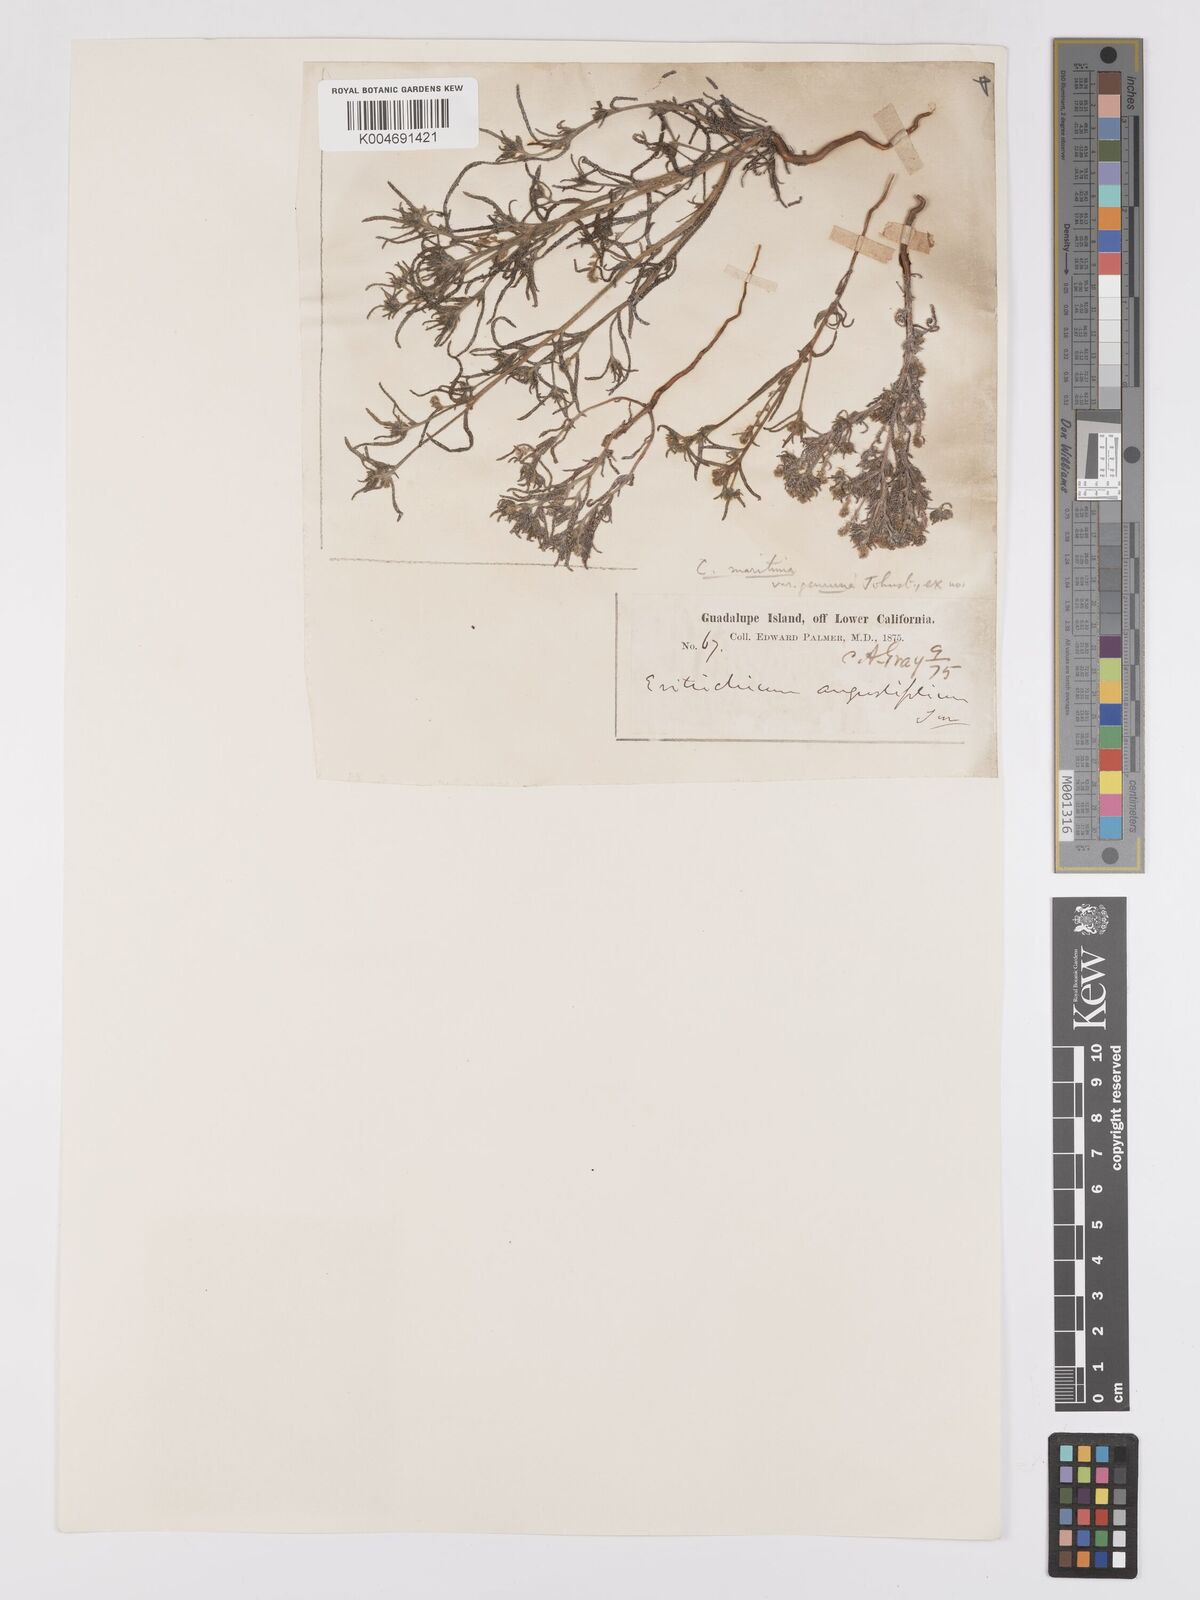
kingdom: Plantae
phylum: Tracheophyta
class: Magnoliopsida
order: Boraginales
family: Boraginaceae
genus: Cryptantha
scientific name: Cryptantha maritima
